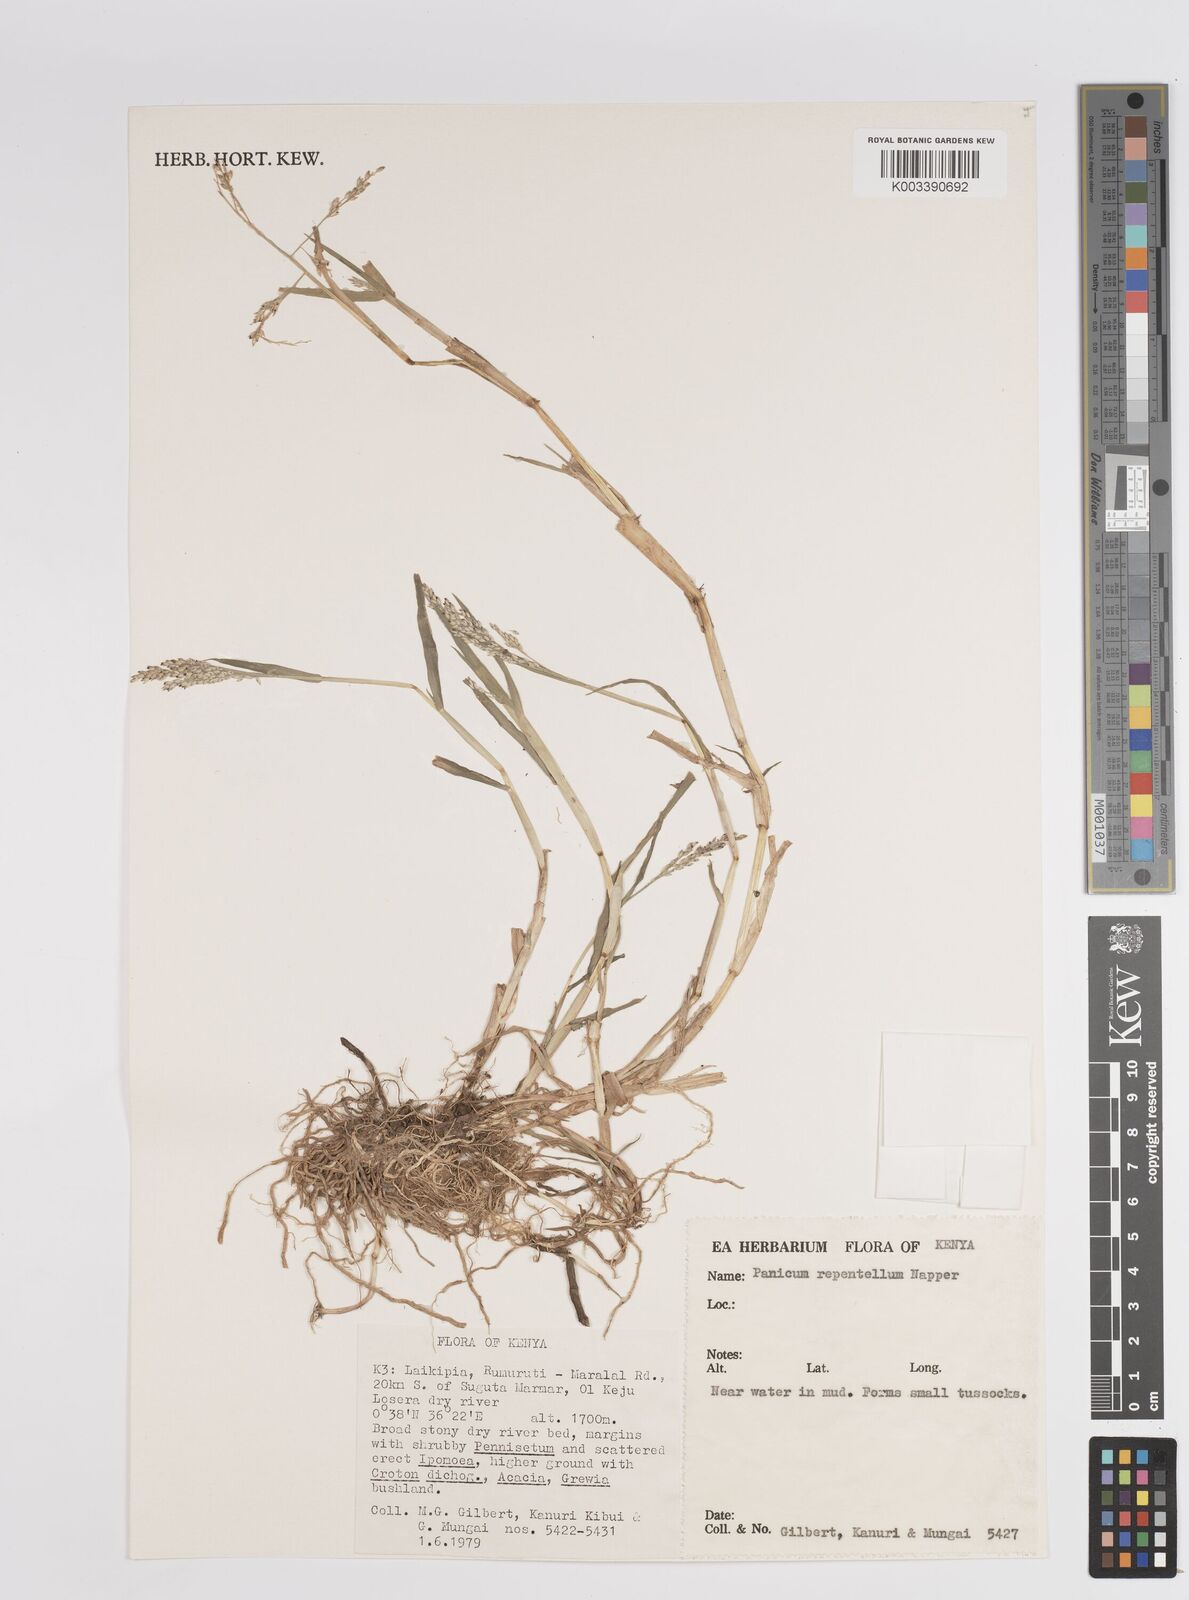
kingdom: Plantae
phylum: Tracheophyta
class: Liliopsida
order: Poales
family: Poaceae
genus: Panicum
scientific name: Panicum hygrocharis
